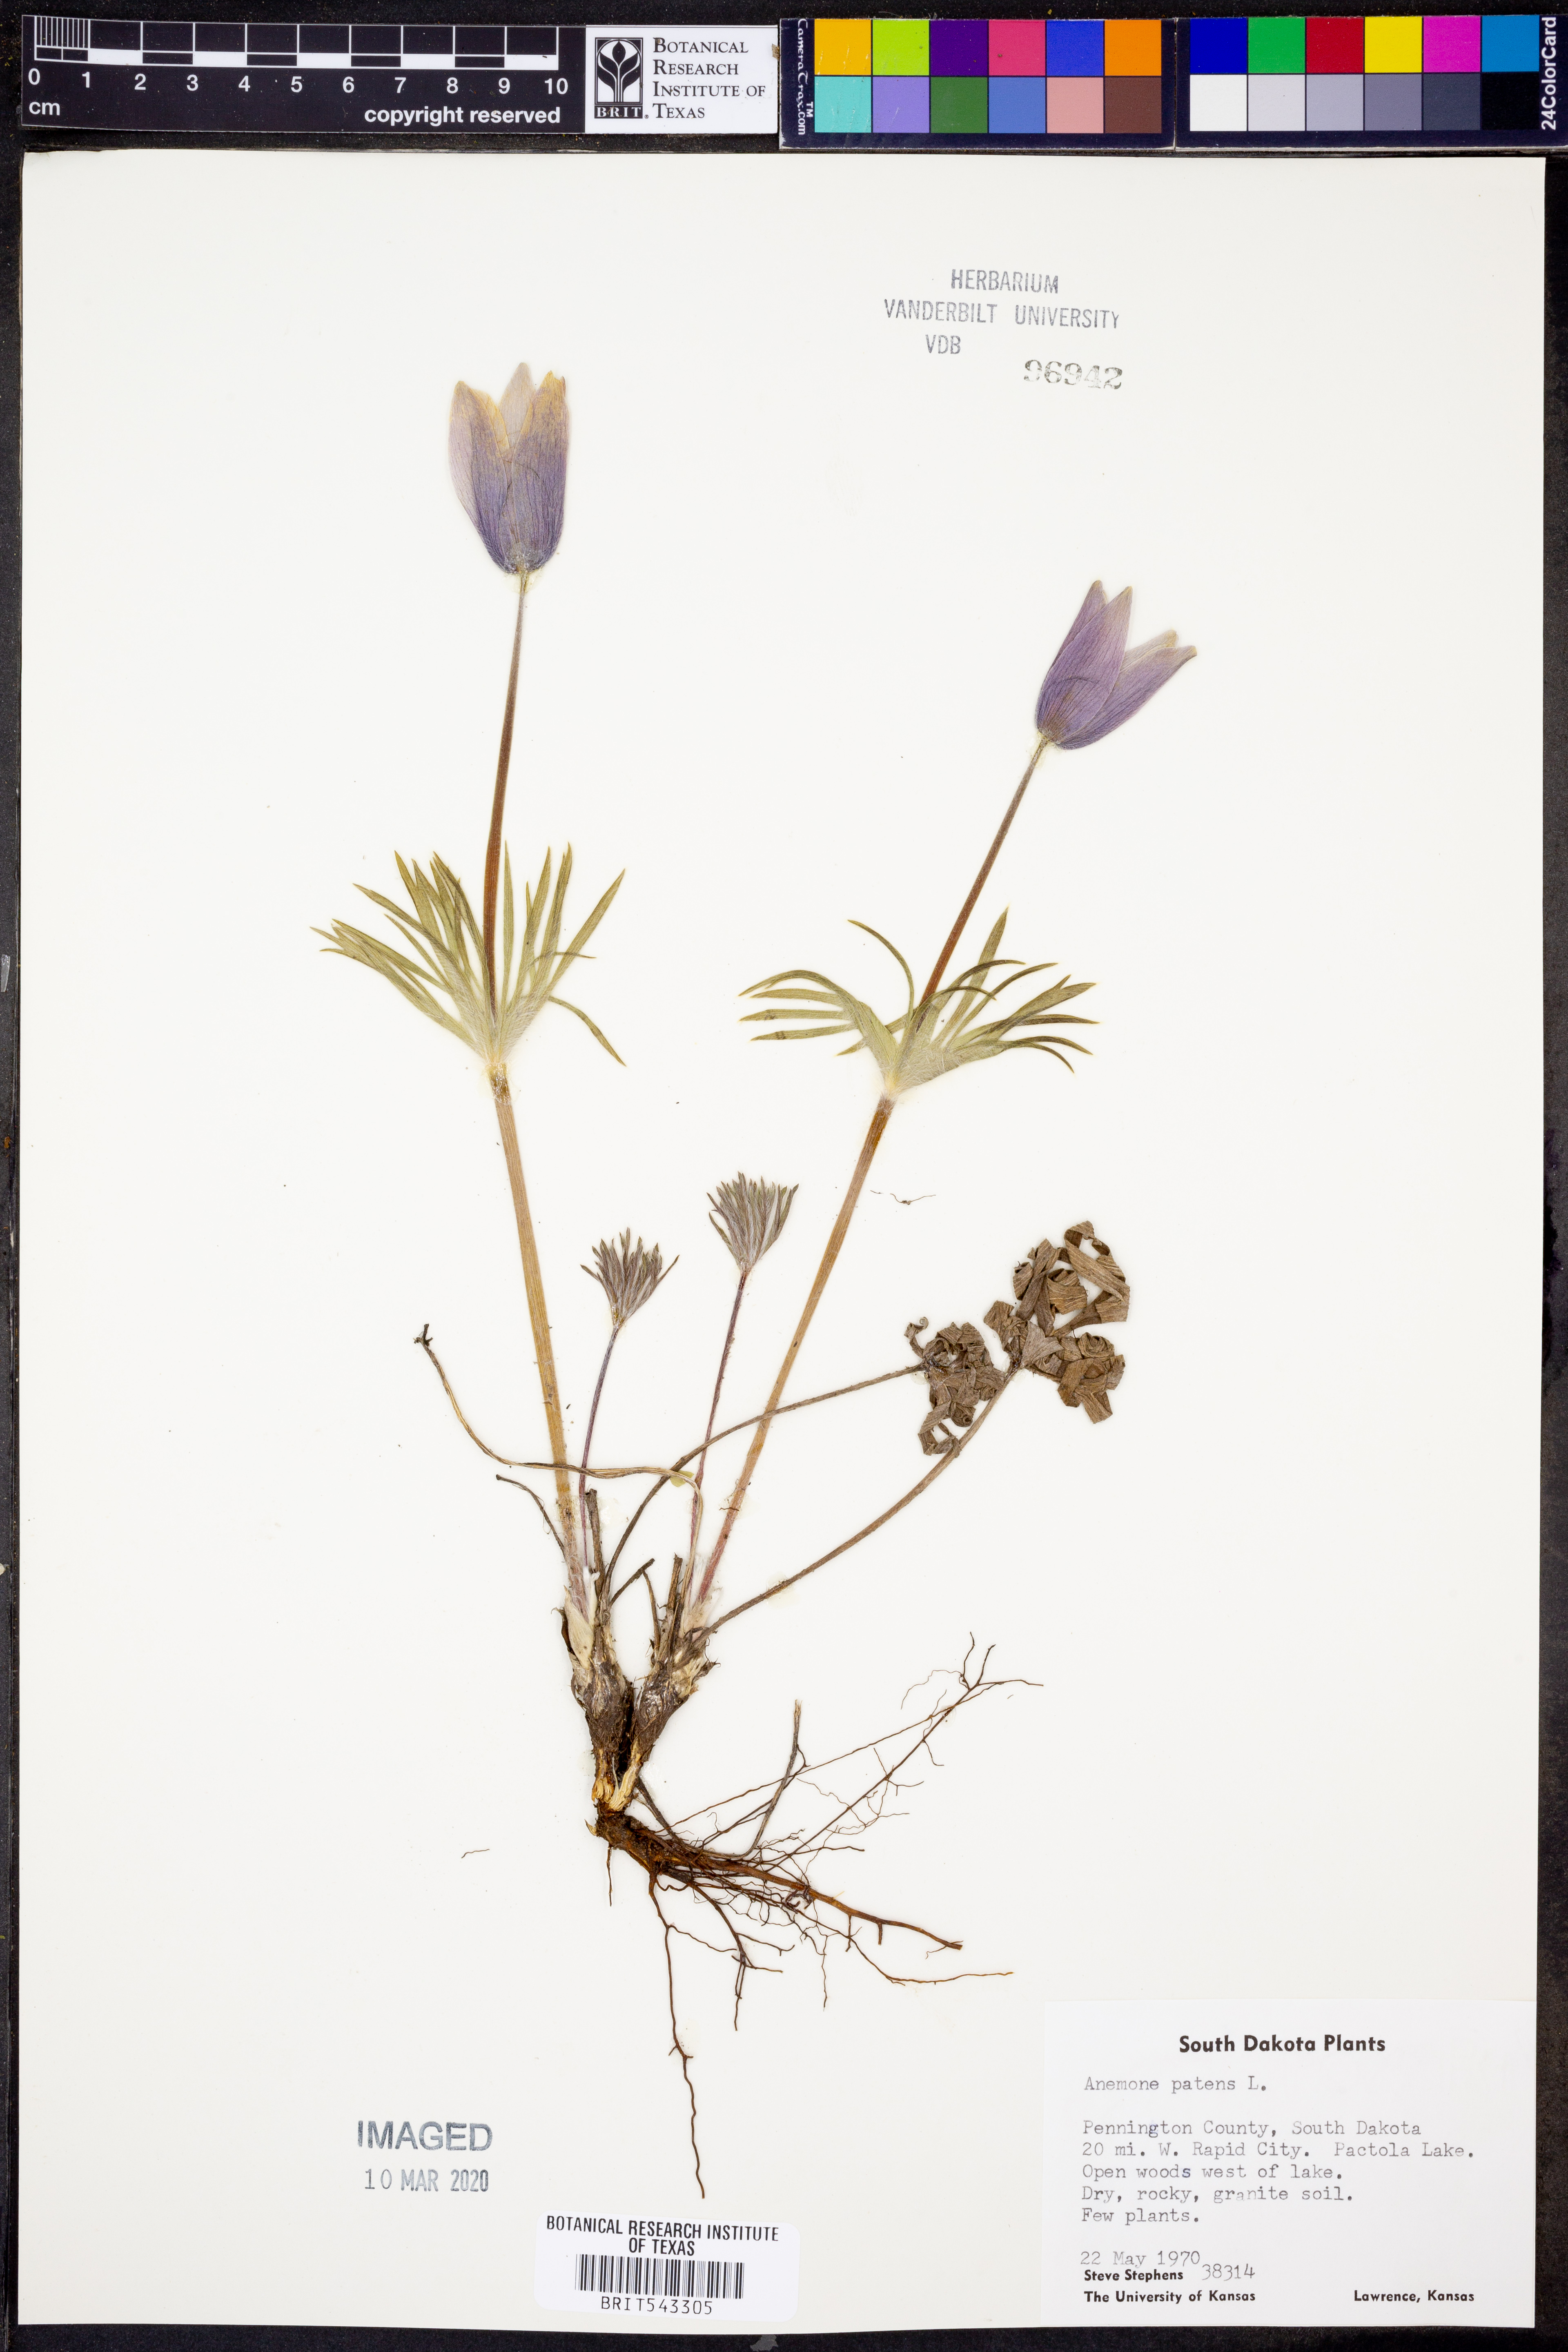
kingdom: Plantae
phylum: Tracheophyta
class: Magnoliopsida
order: Ranunculales
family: Ranunculaceae
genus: Pulsatilla
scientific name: Pulsatilla patens
